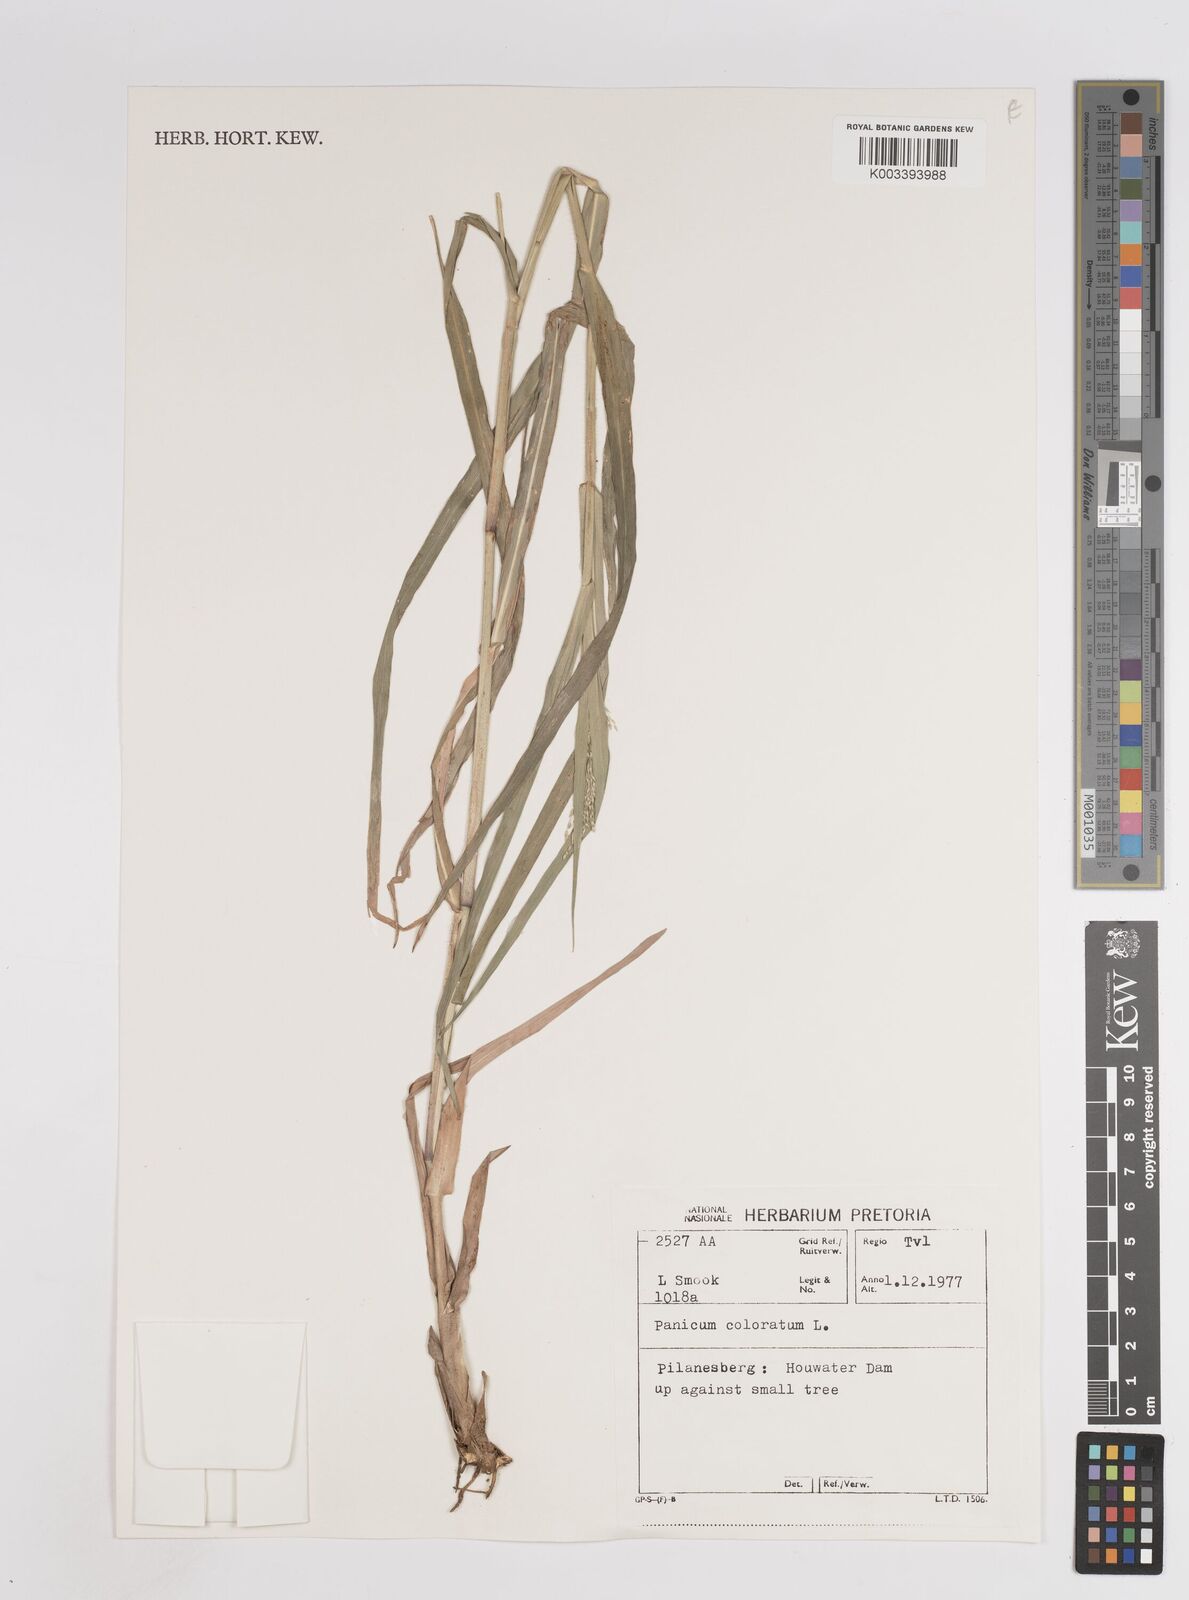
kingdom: Plantae
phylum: Tracheophyta
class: Liliopsida
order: Poales
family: Poaceae
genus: Panicum
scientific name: Panicum coloratum
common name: Kleingrass
